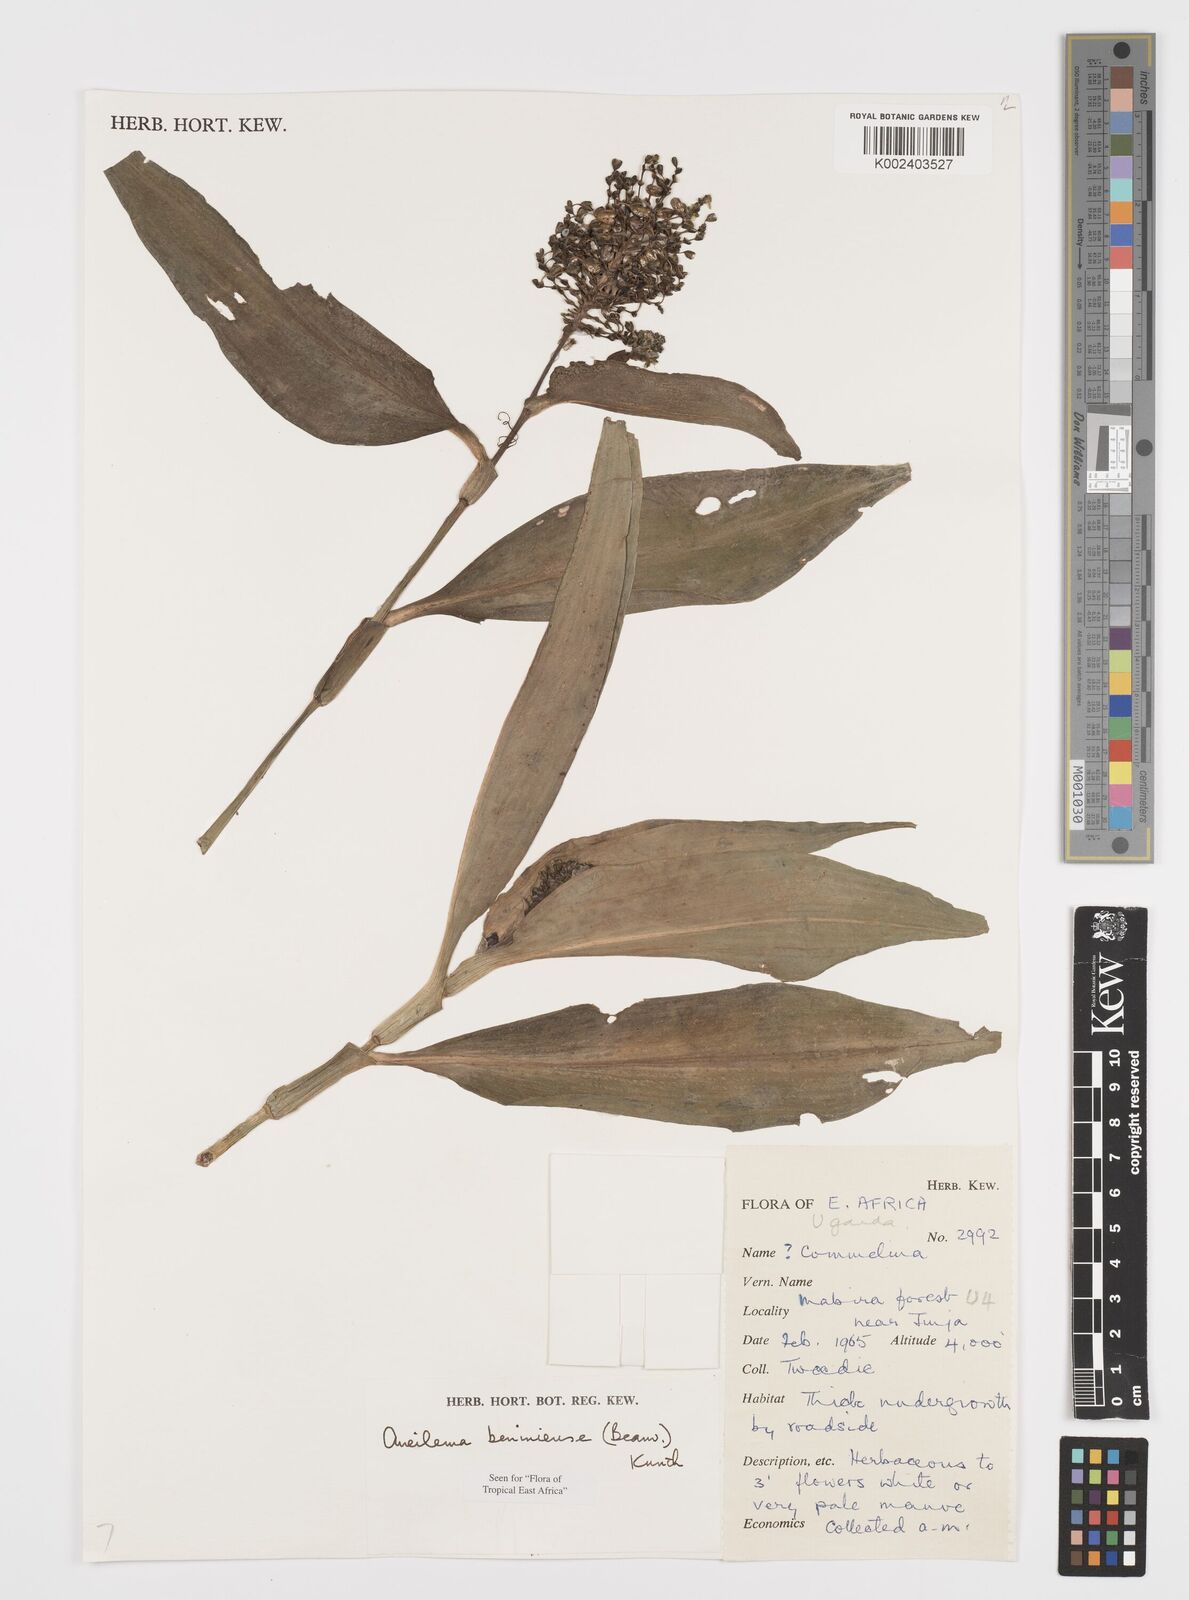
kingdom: Plantae
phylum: Tracheophyta
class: Liliopsida
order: Commelinales
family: Commelinaceae
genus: Aneilema
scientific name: Aneilema beniniense
